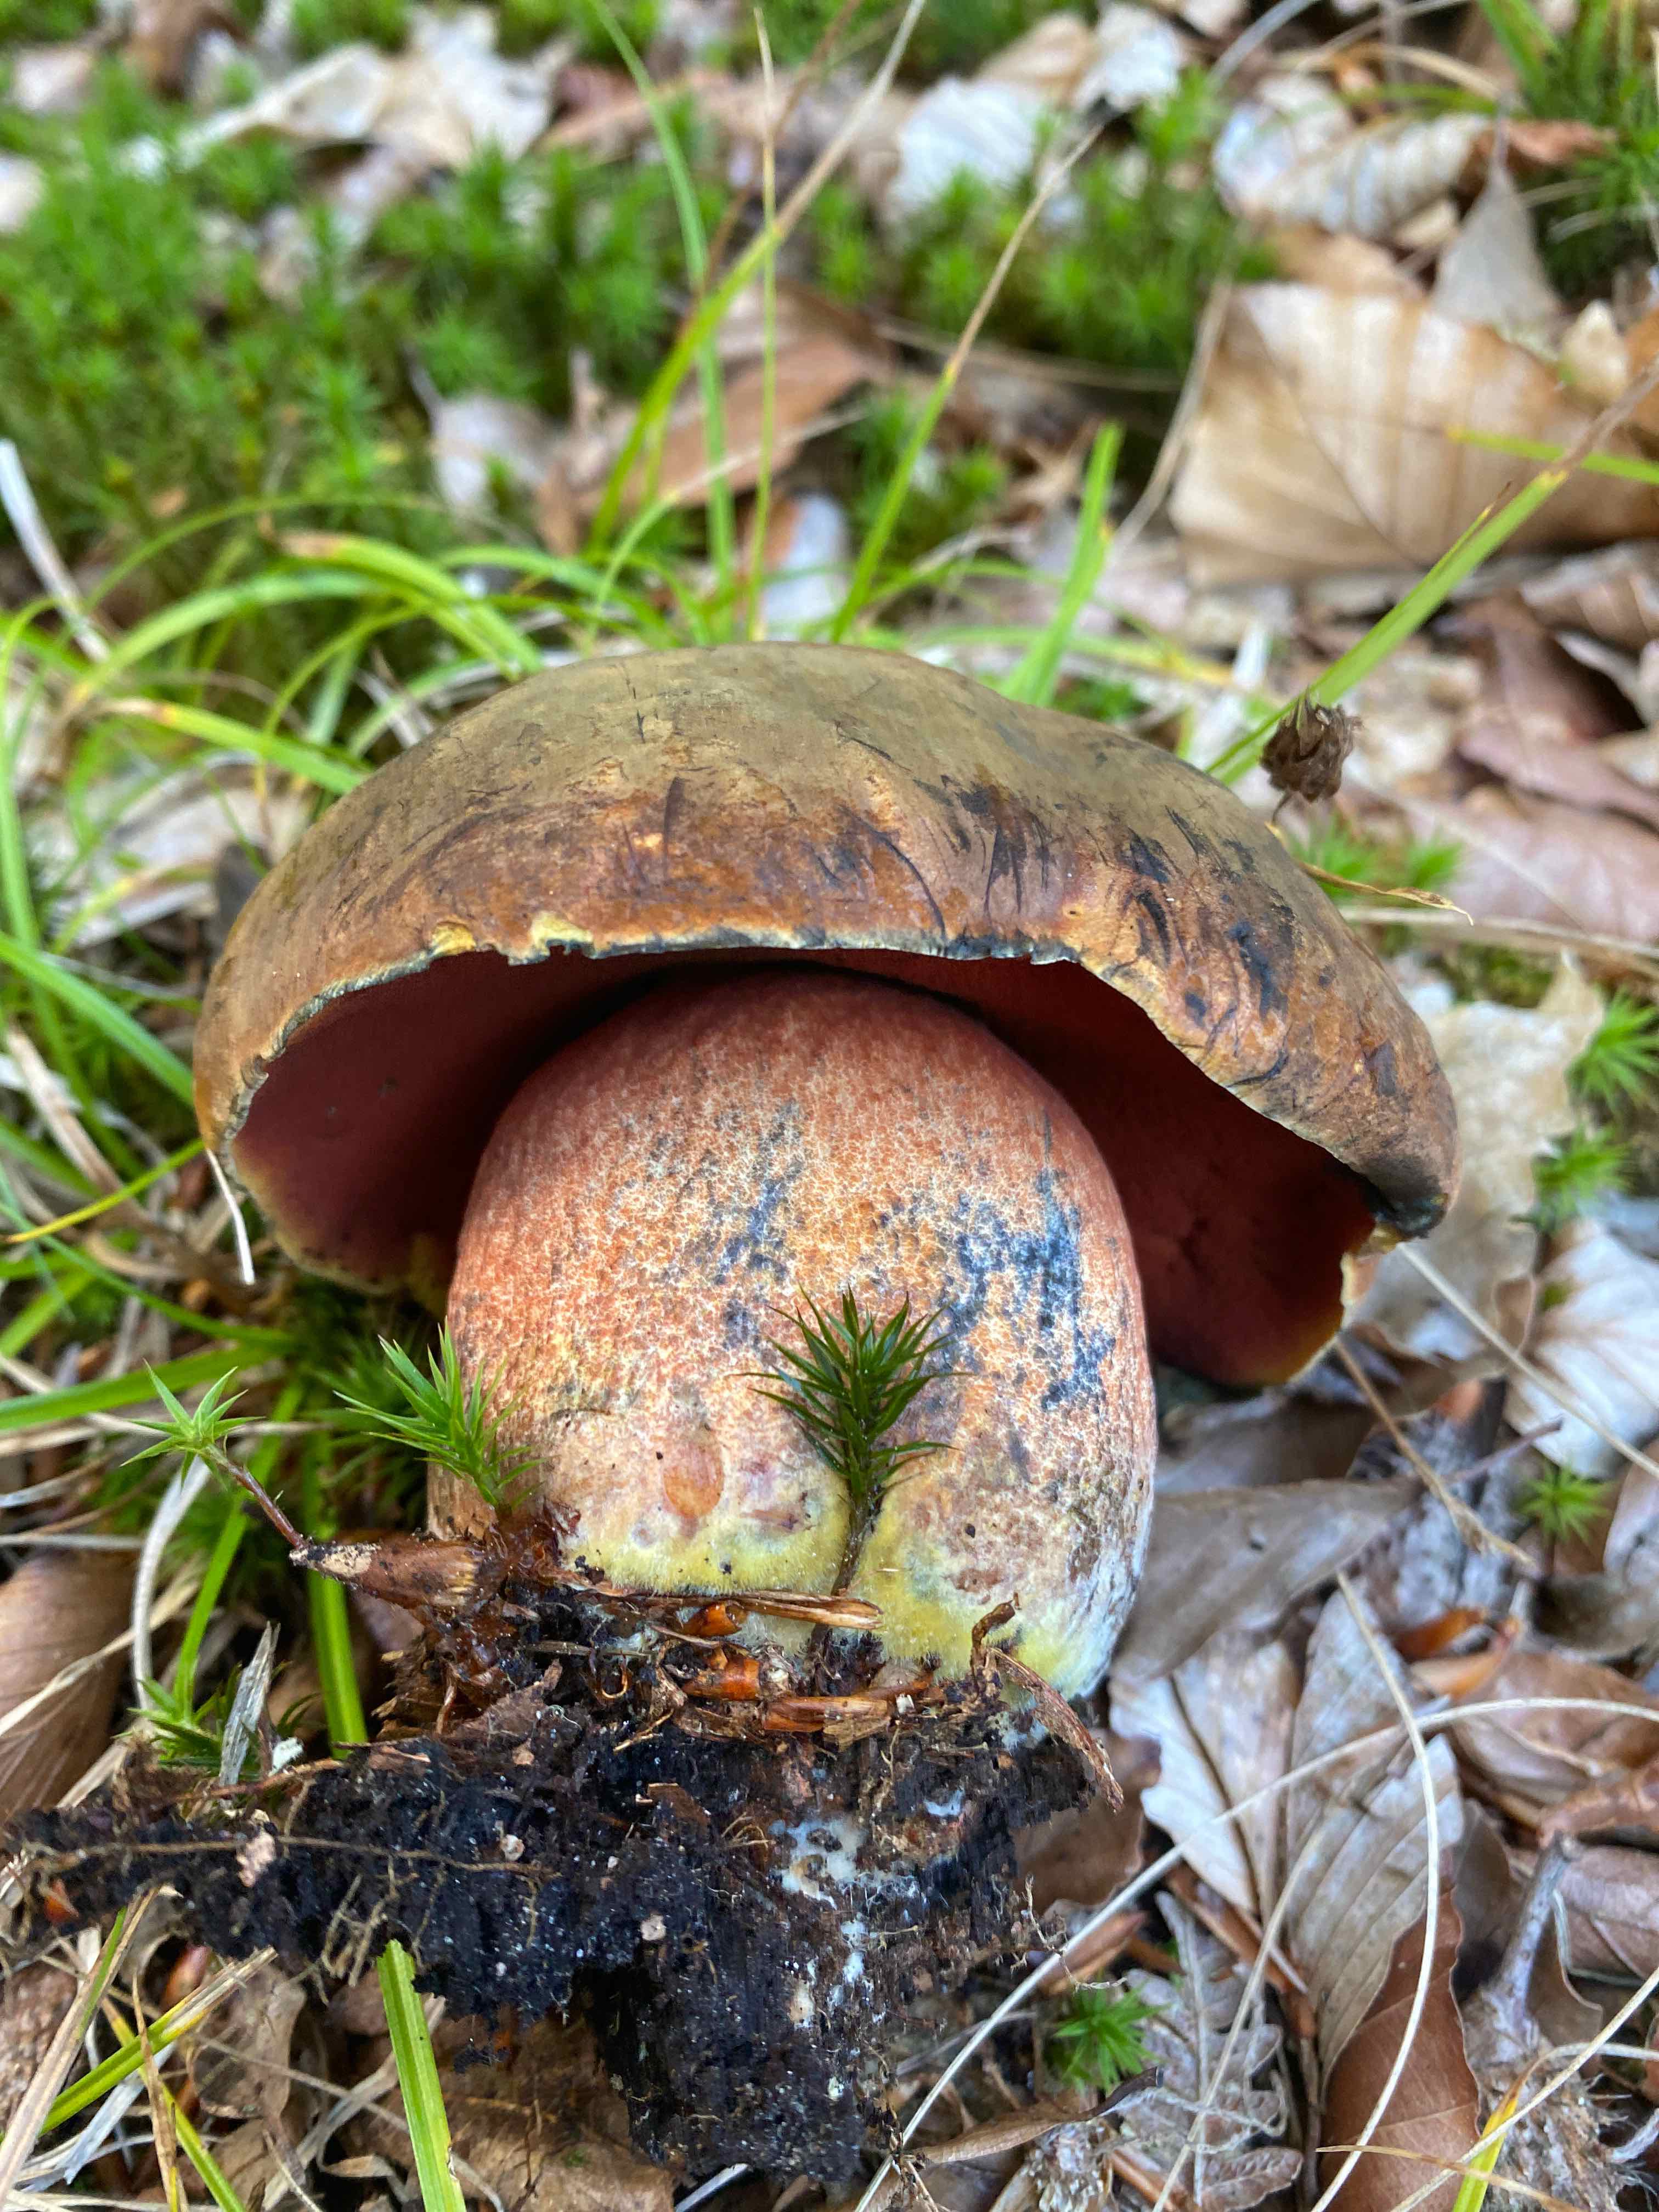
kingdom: Fungi
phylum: Basidiomycota
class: Agaricomycetes
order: Boletales
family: Boletaceae
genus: Neoboletus
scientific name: Neoboletus erythropus
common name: punktstokket indigorørhat
